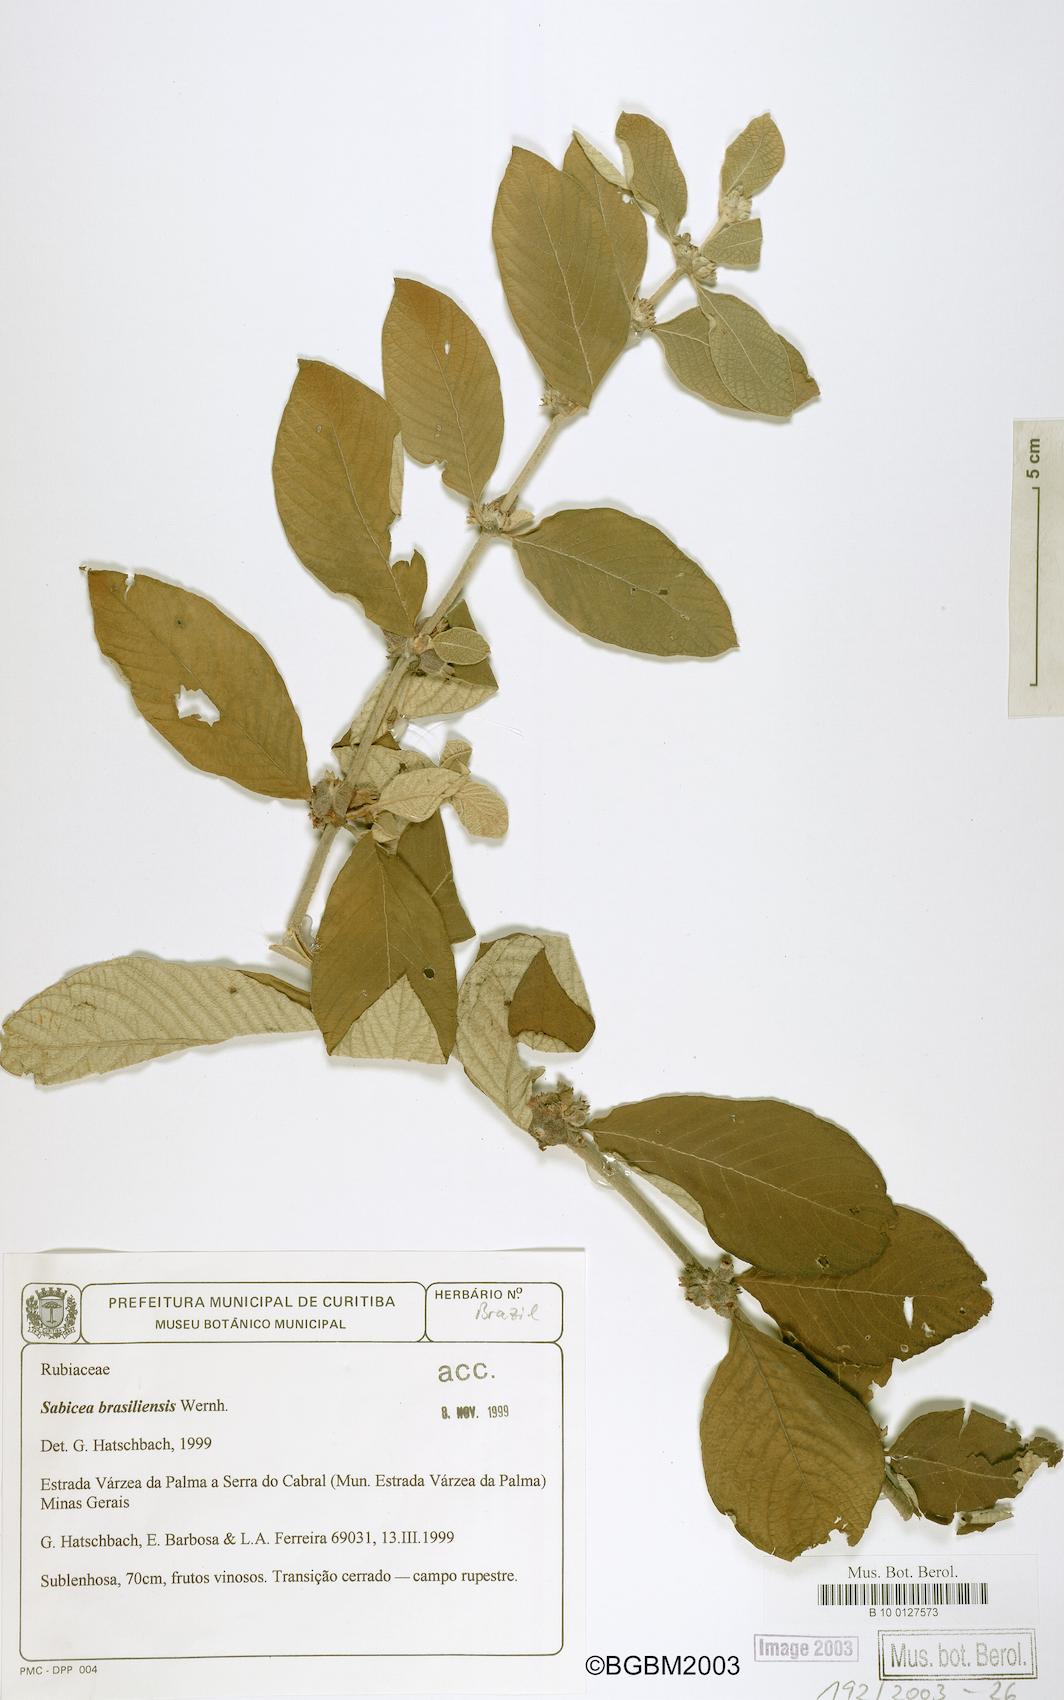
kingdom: Plantae
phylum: Tracheophyta
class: Magnoliopsida
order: Gentianales
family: Rubiaceae
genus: Sabicea
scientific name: Sabicea brasiliensis
